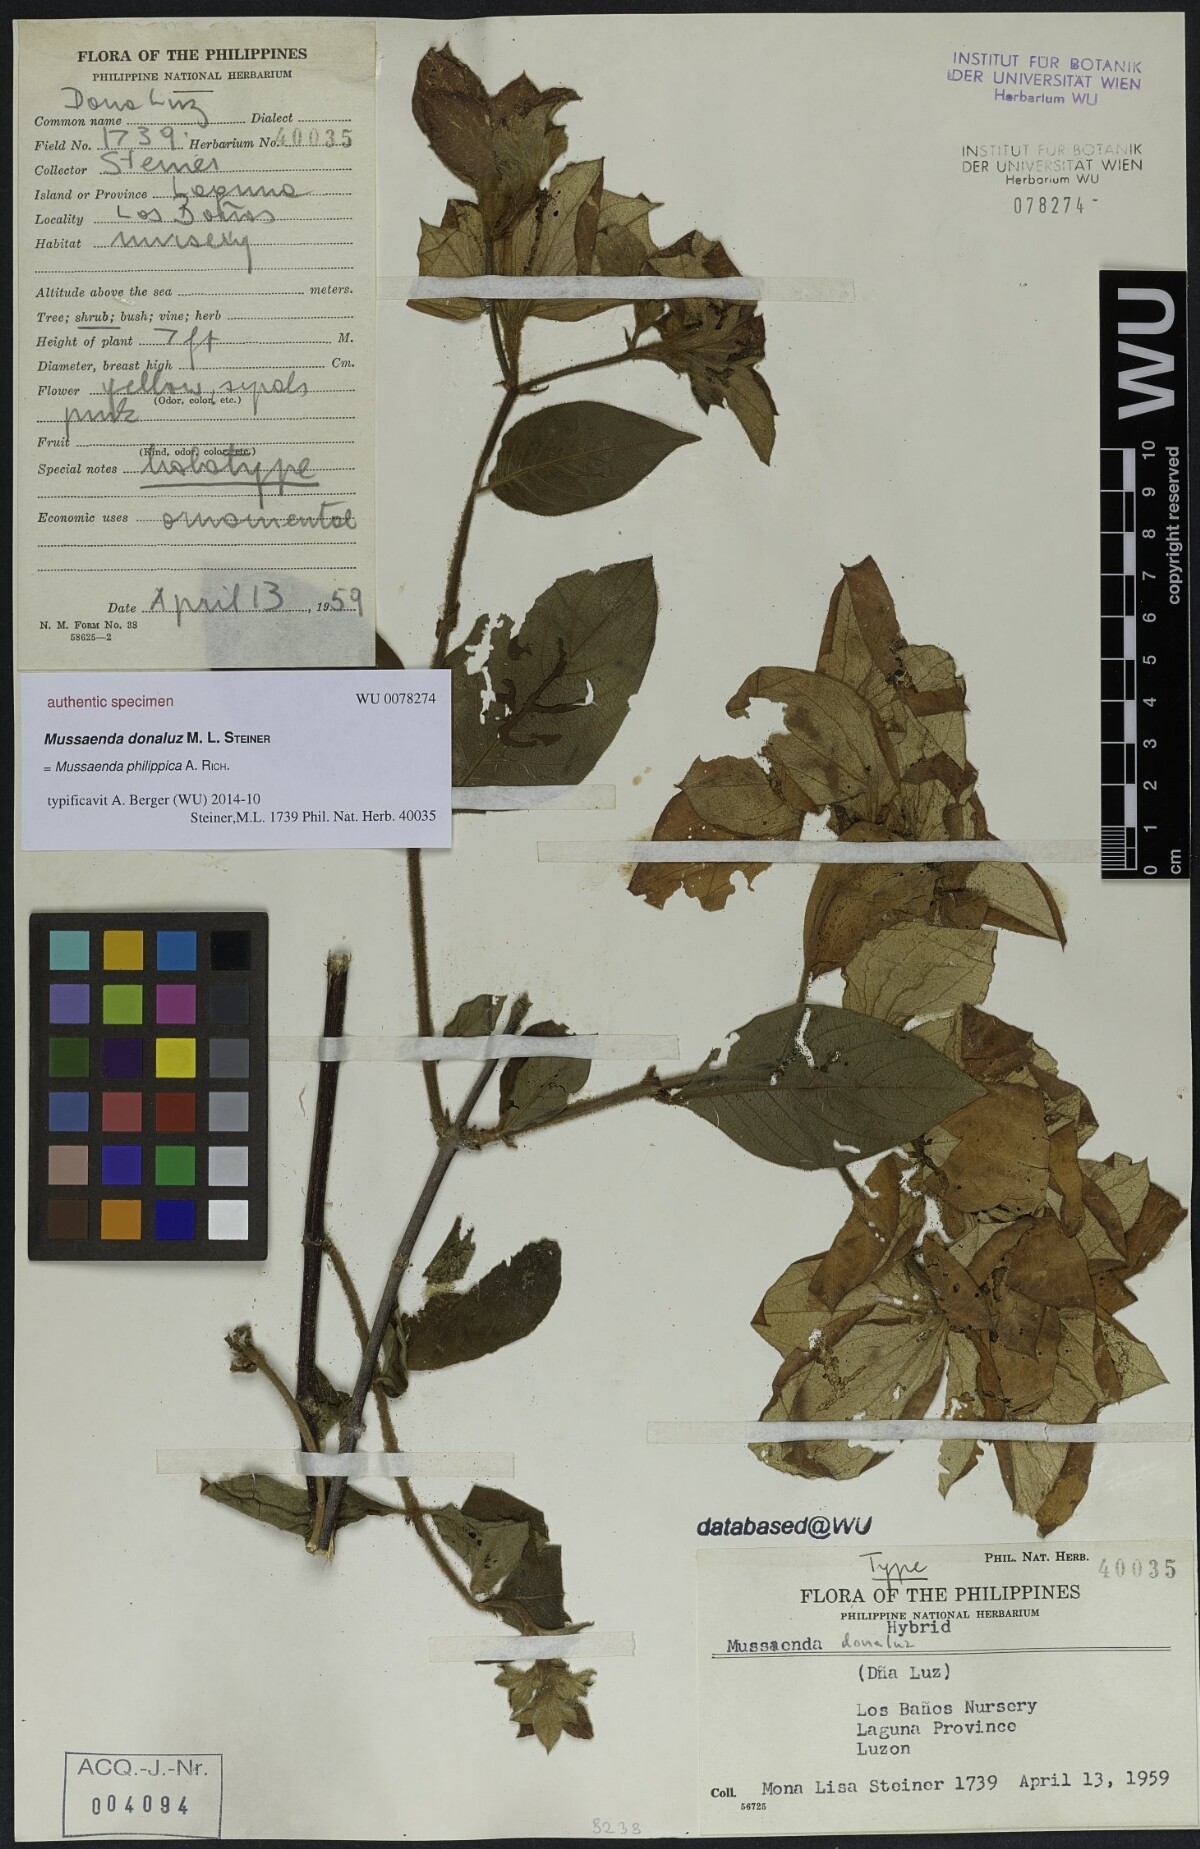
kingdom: Plantae
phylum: Tracheophyta
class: Magnoliopsida
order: Gentianales
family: Rubiaceae
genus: Mussaenda
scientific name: Mussaenda
